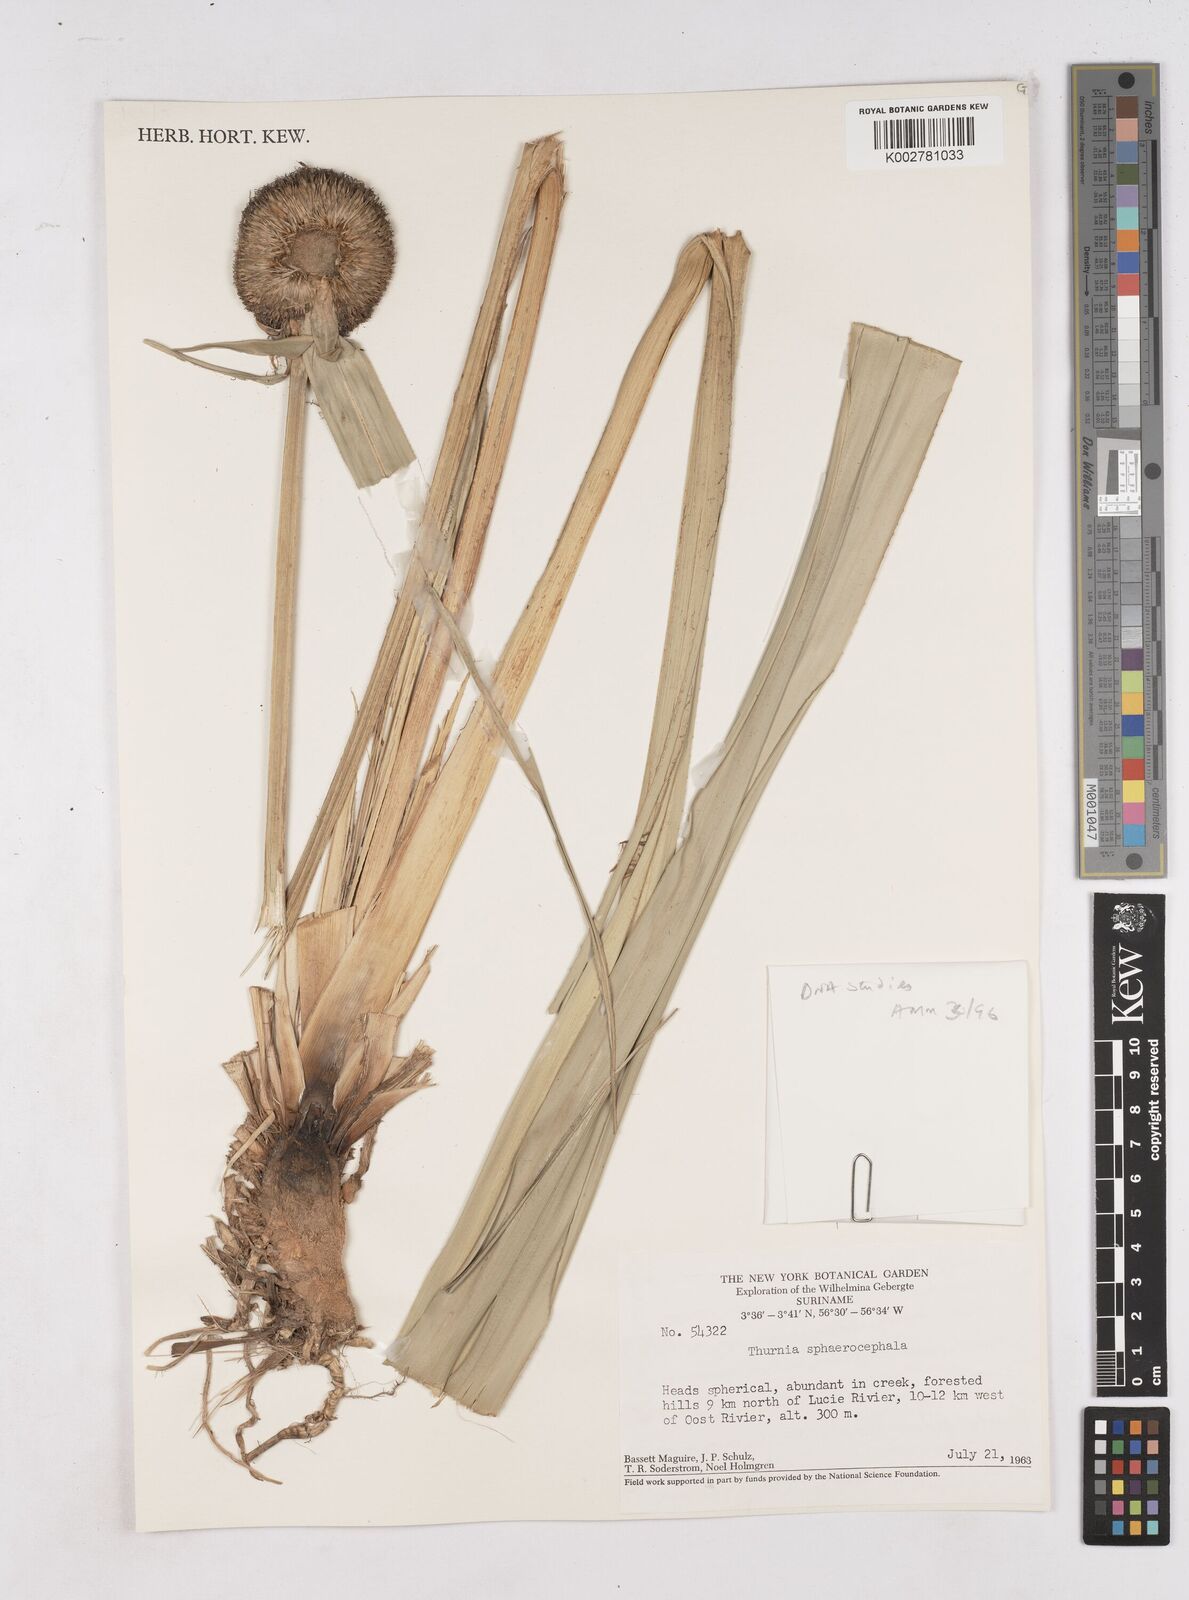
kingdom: Plantae
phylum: Tracheophyta
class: Liliopsida
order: Poales
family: Thurniaceae
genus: Thurnia
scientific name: Thurnia sphaerocephala
